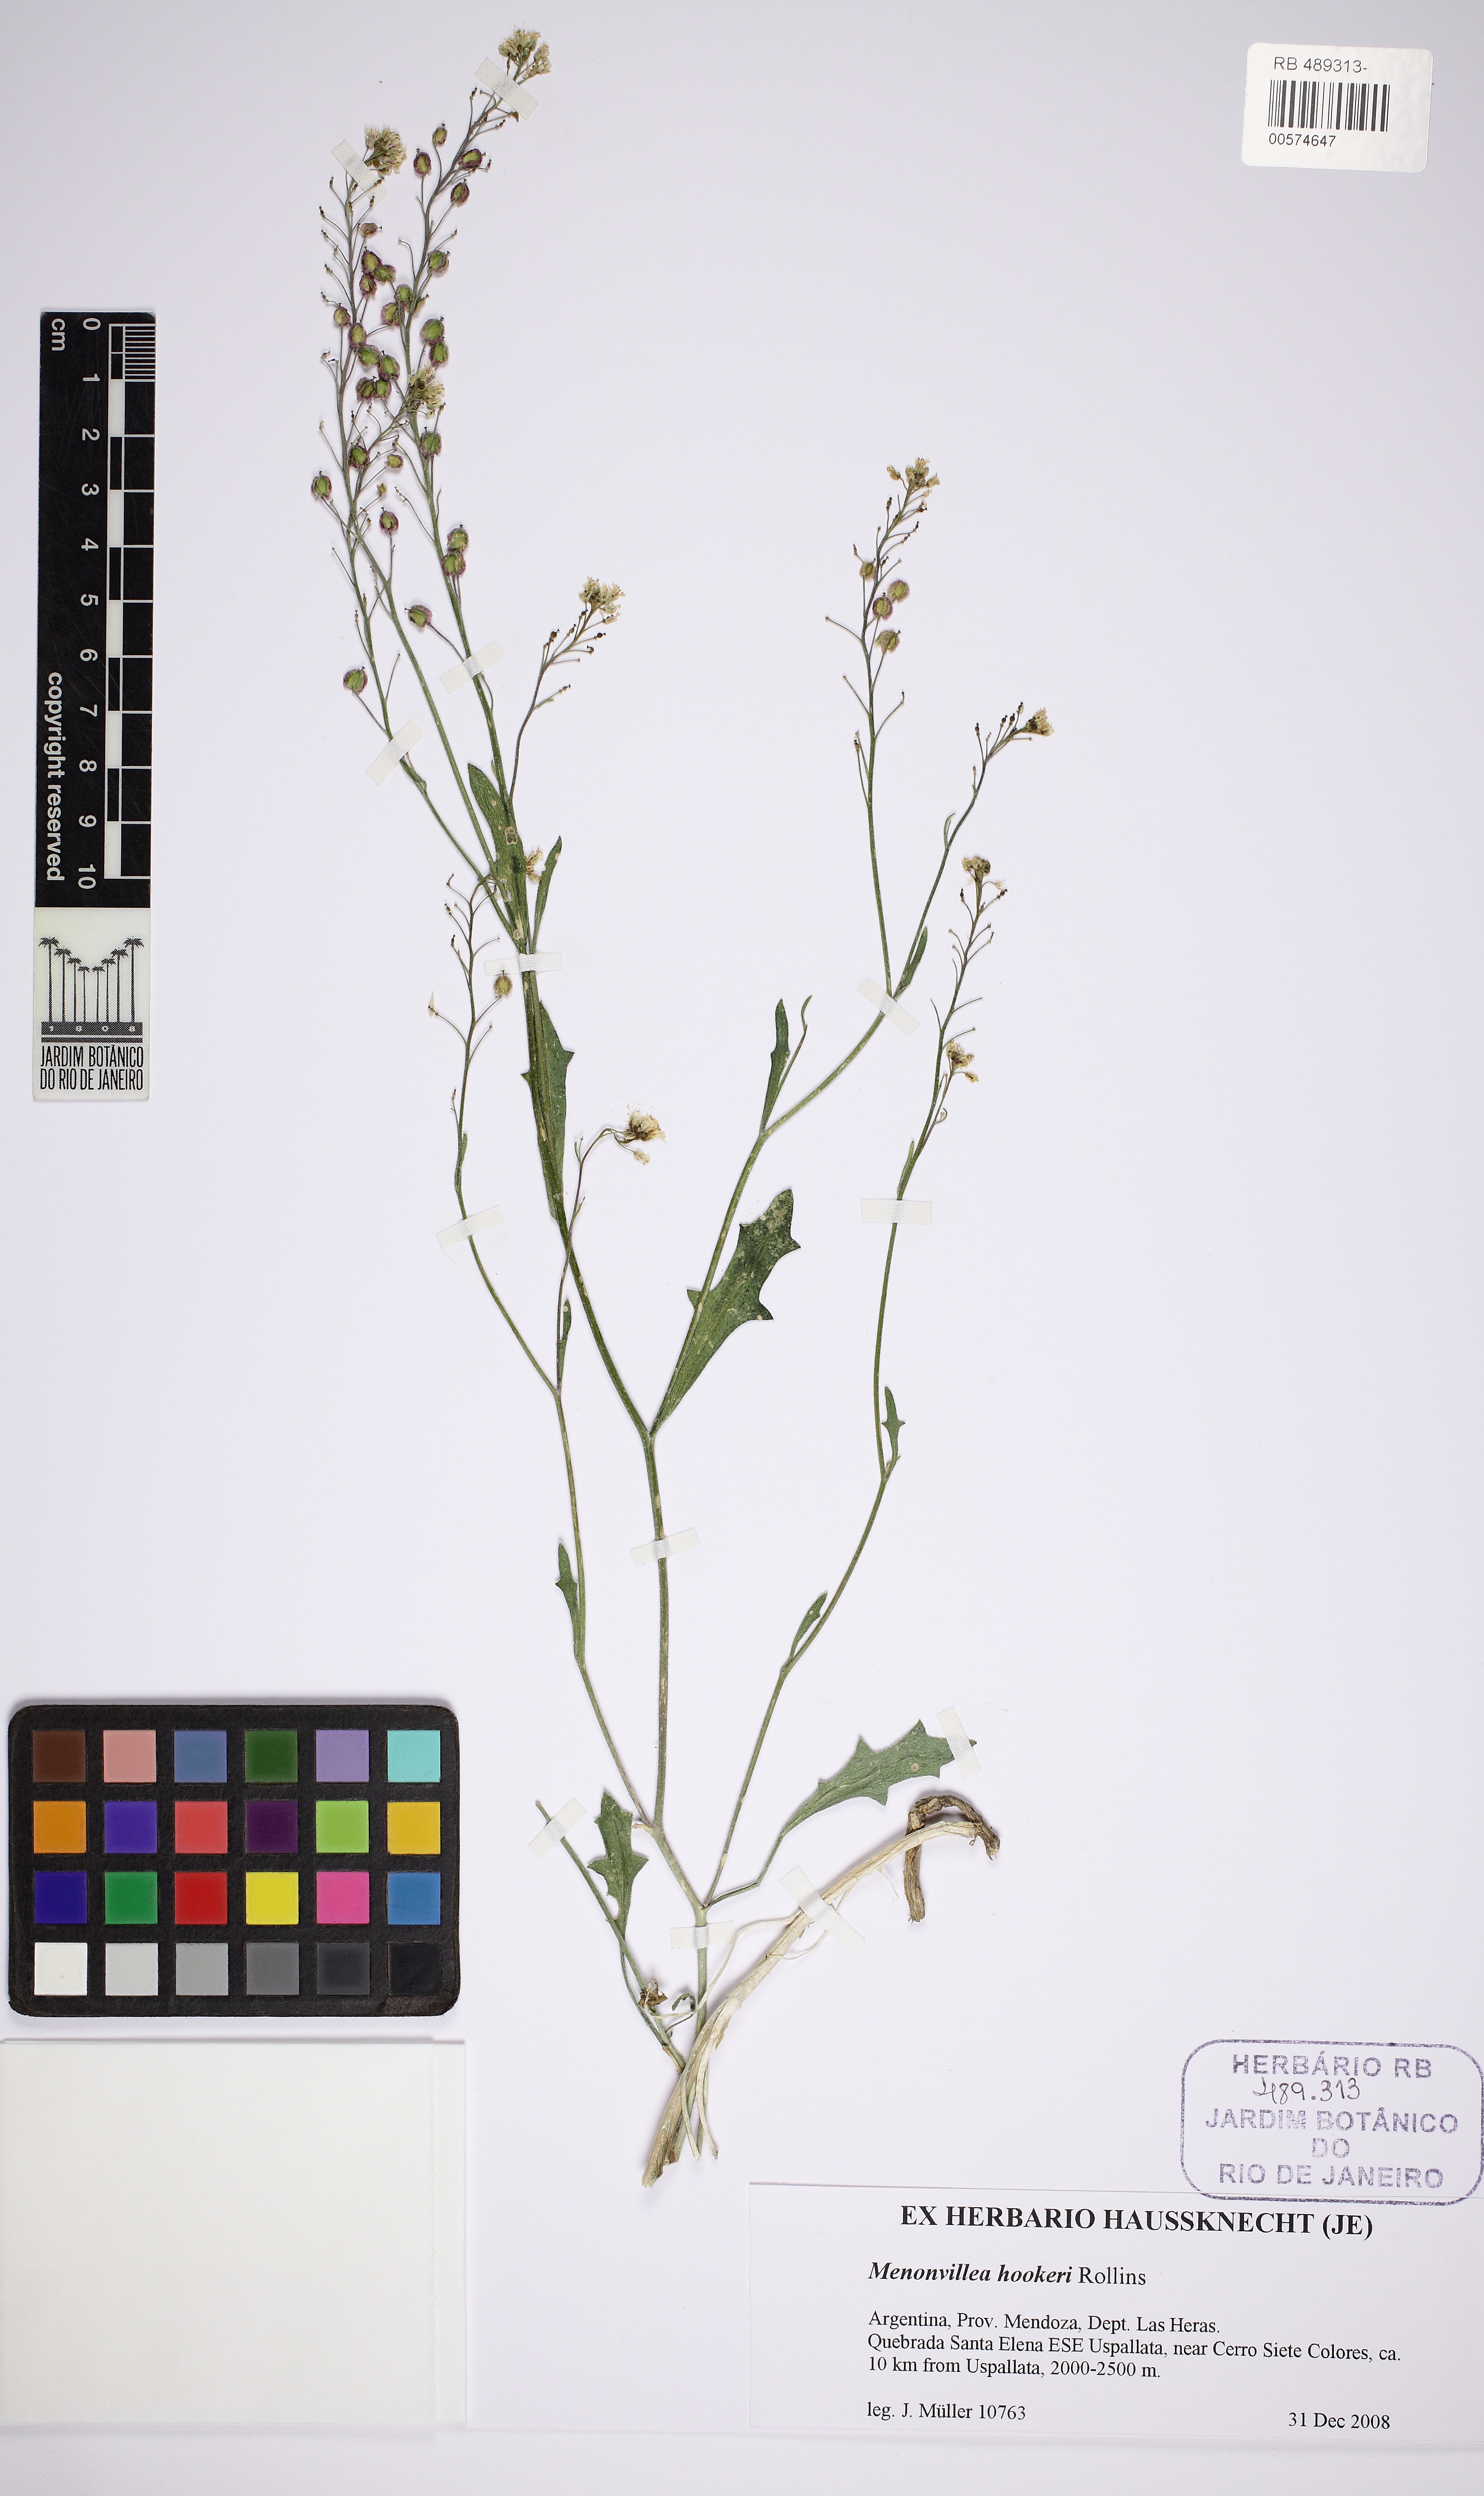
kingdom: Plantae
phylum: Tracheophyta
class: Magnoliopsida
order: Brassicales
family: Brassicaceae
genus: Menonvillea
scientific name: Menonvillea scapigera
